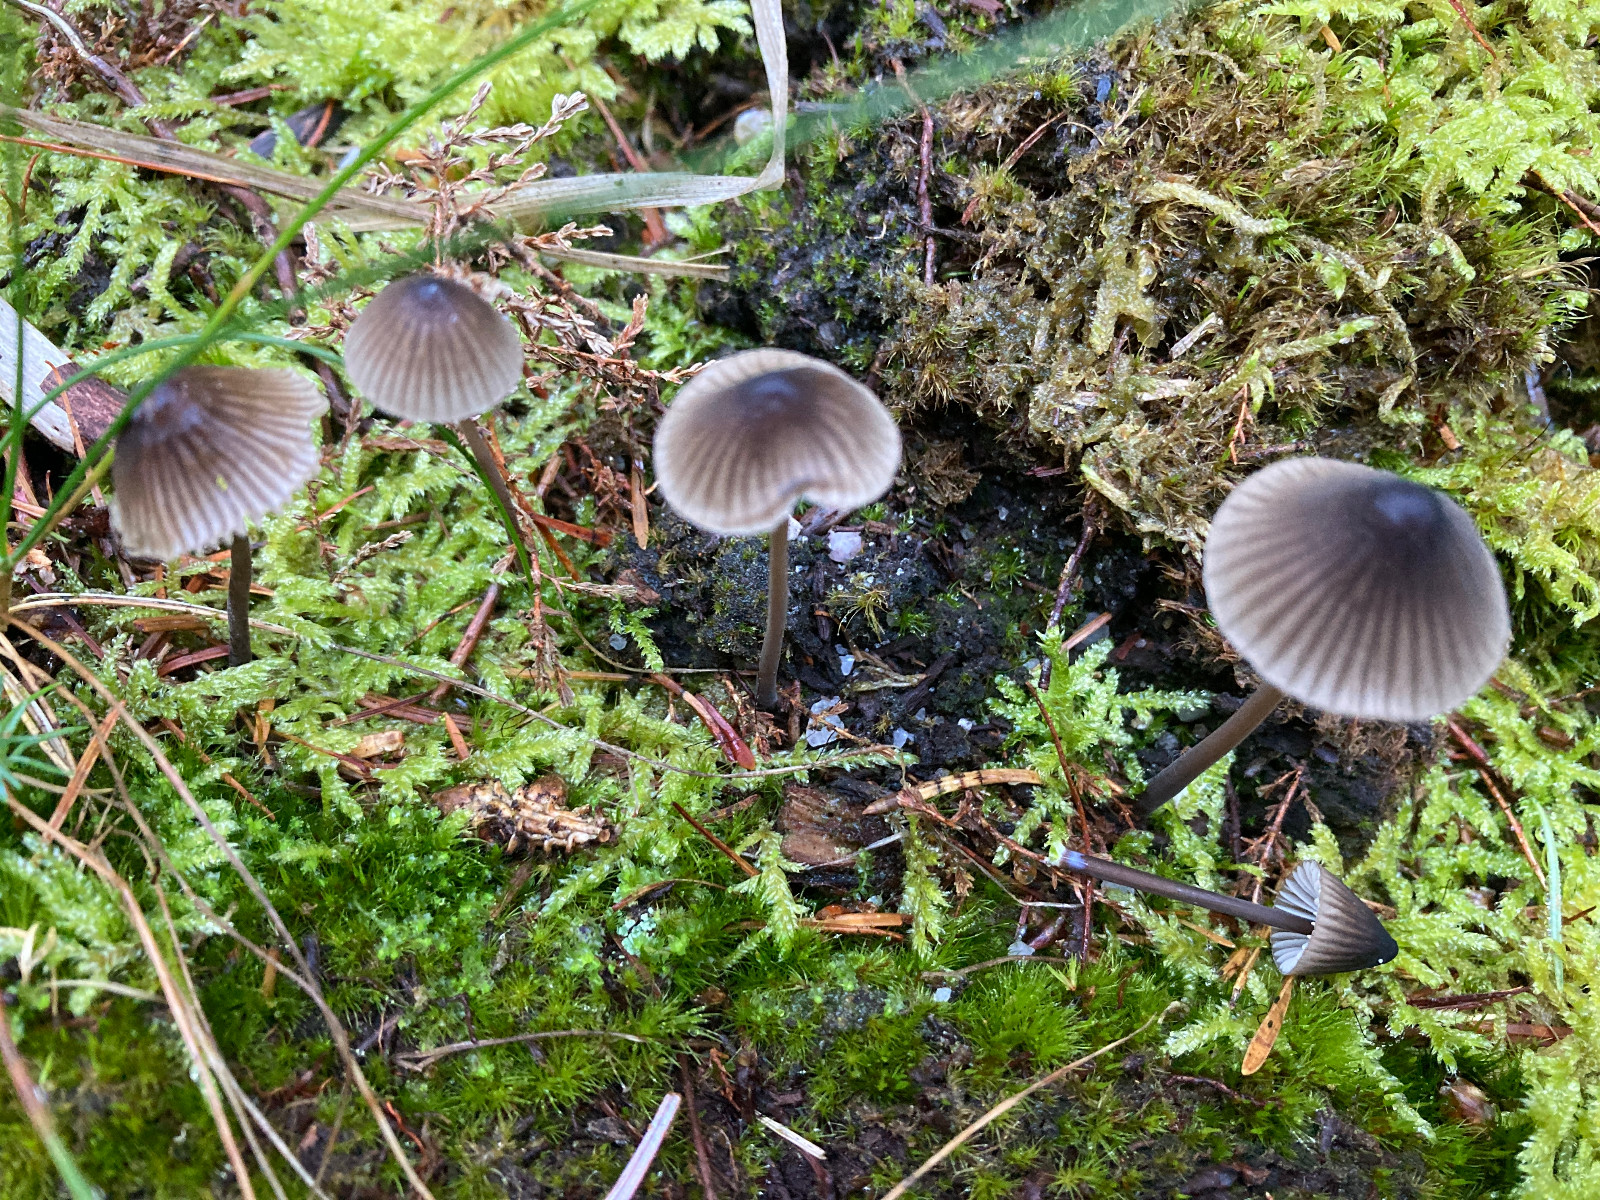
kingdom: Fungi
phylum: Basidiomycota
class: Agaricomycetes
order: Agaricales
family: Mycenaceae
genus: Mycena
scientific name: Mycena galopus
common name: hvidmælket huesvamp
